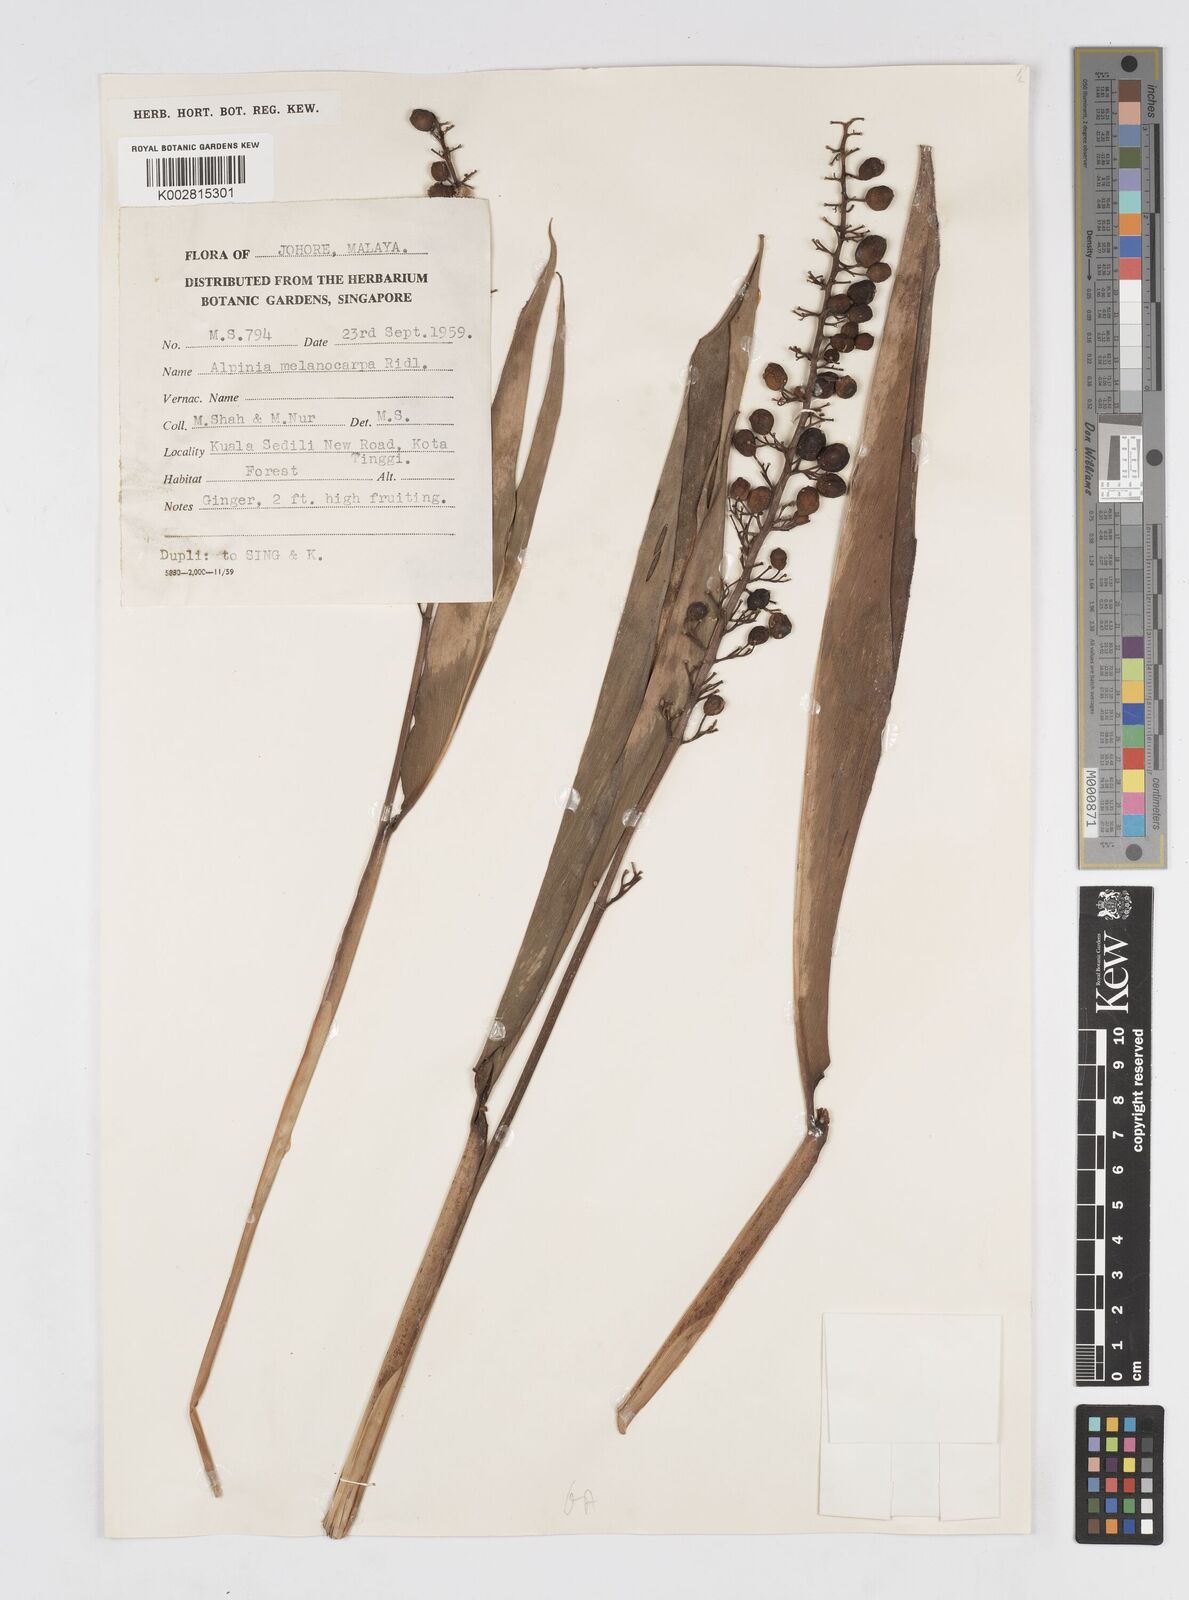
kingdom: Plantae
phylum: Tracheophyta
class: Liliopsida
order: Zingiberales
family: Zingiberaceae
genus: Alpinia
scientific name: Alpinia aquatica
